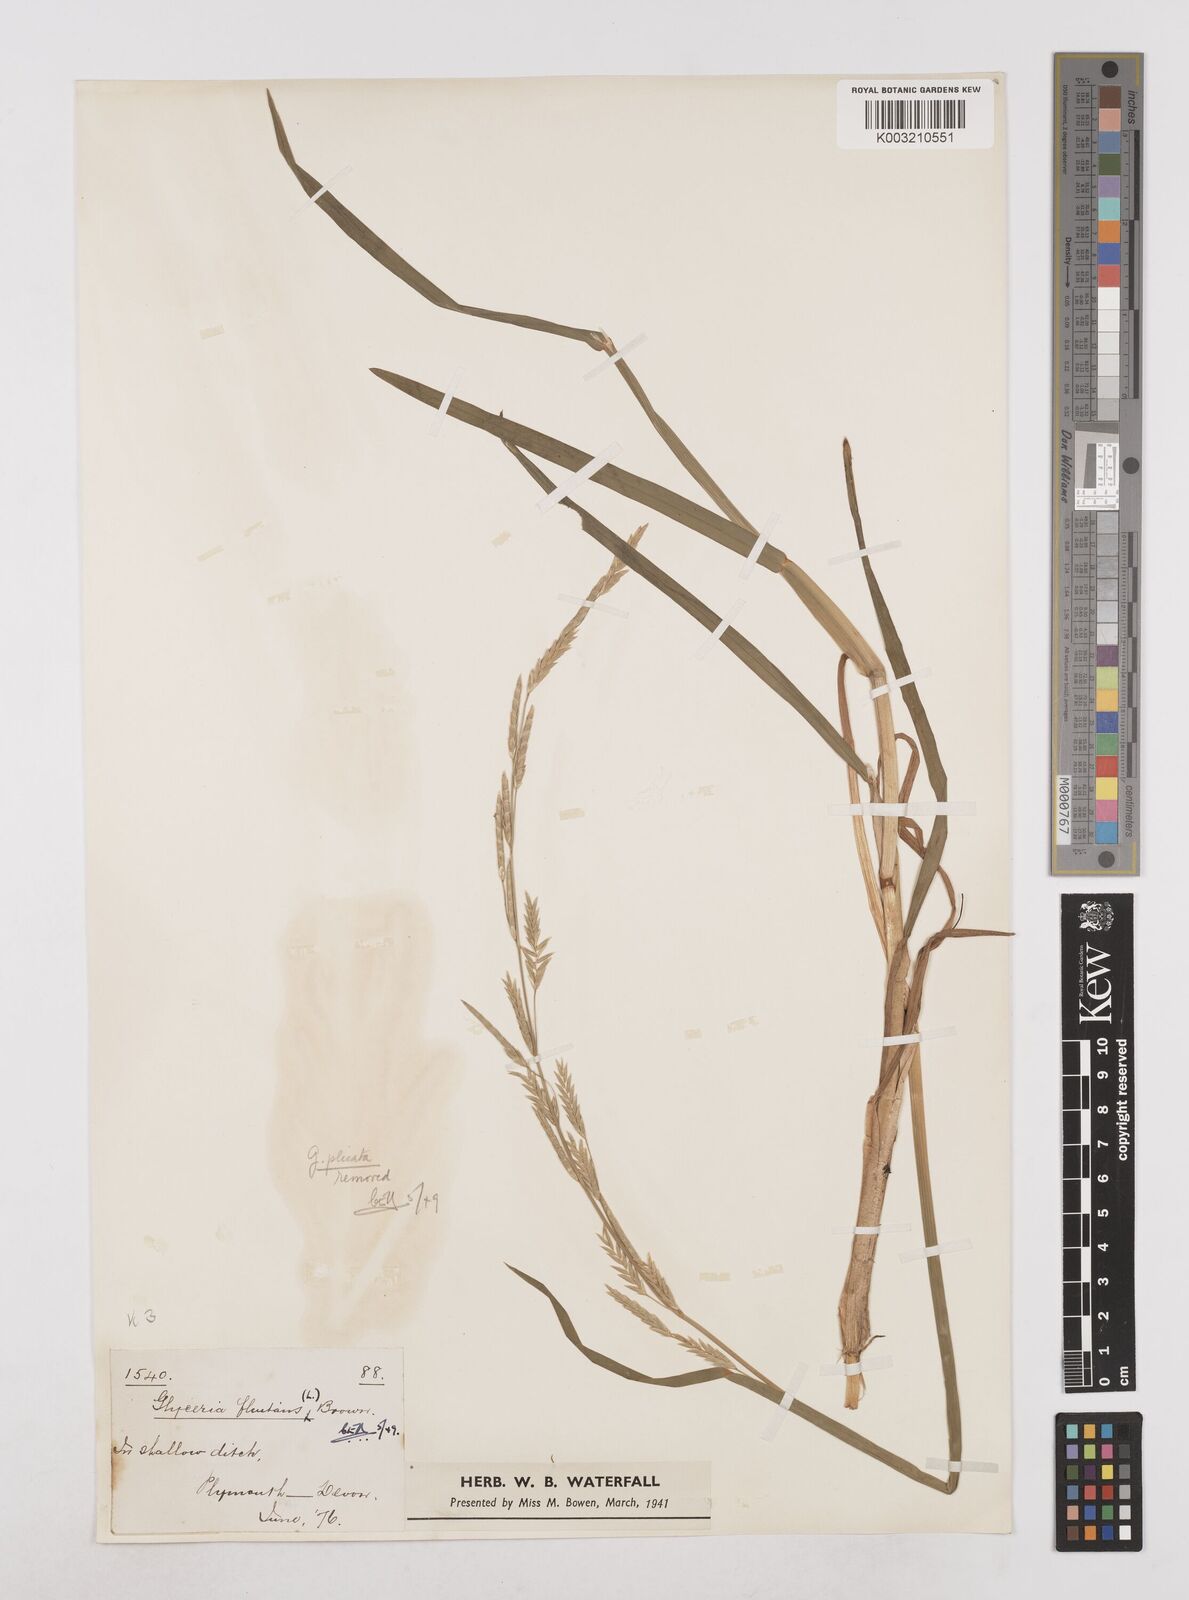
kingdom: Plantae
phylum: Tracheophyta
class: Liliopsida
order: Poales
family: Poaceae
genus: Glyceria
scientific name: Glyceria fluitans
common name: Floating sweet-grass
